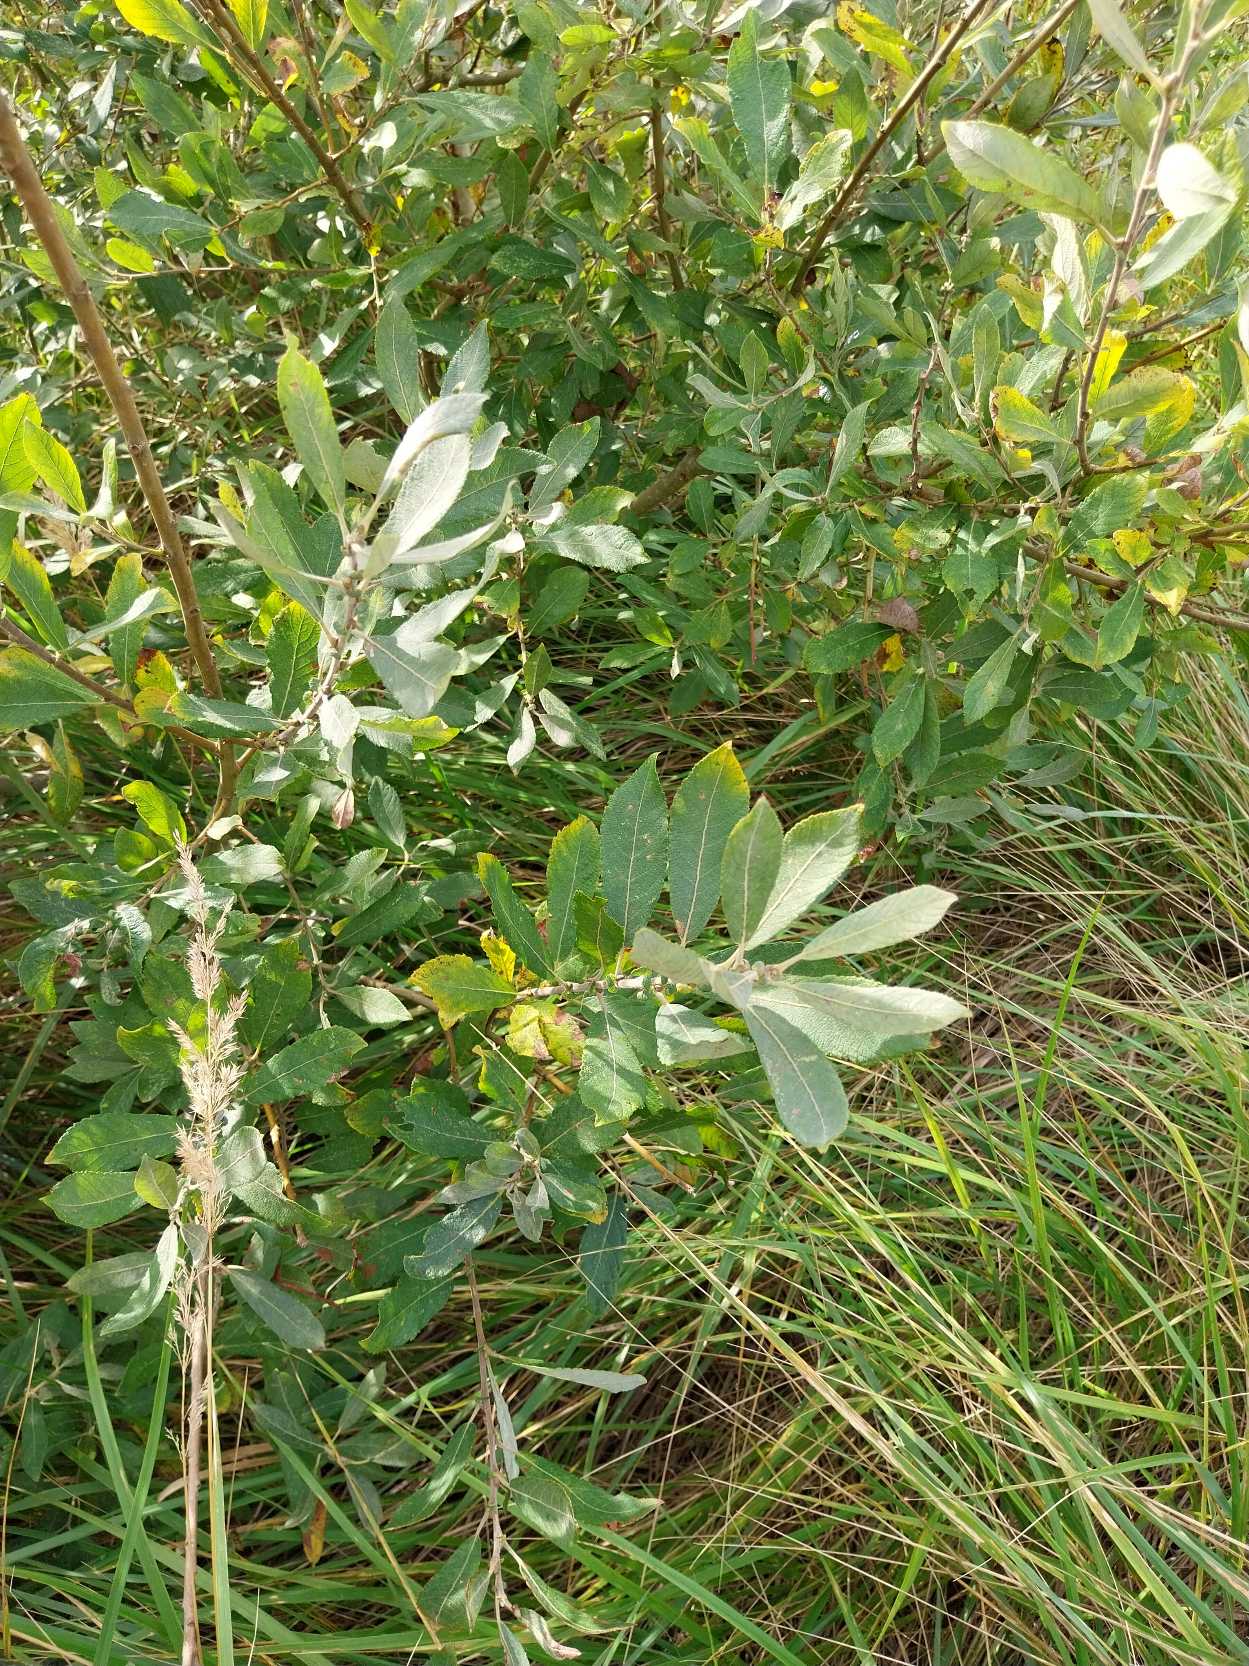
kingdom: Plantae
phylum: Tracheophyta
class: Magnoliopsida
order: Malpighiales
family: Salicaceae
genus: Salix
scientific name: Salix cinerea
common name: Grå-pil
